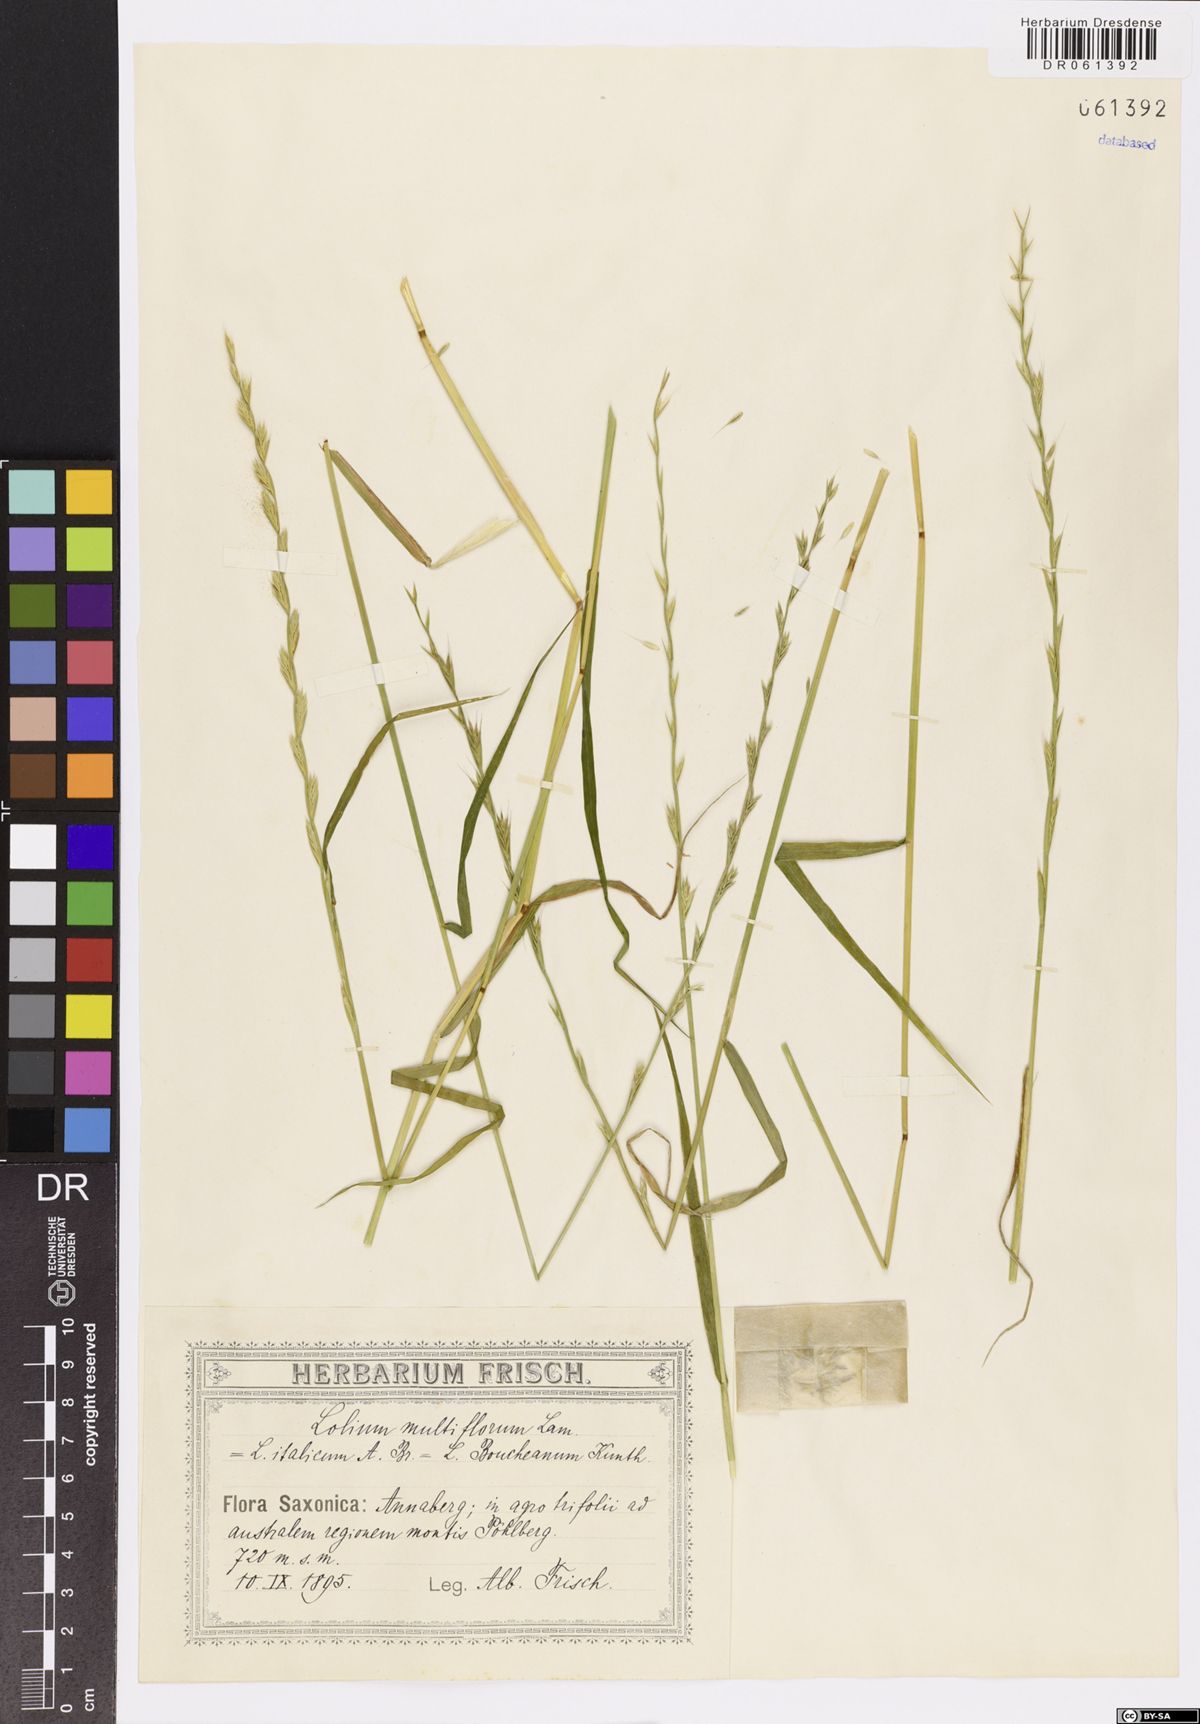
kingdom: Plantae
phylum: Tracheophyta
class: Liliopsida
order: Poales
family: Poaceae
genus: Lolium
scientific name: Lolium multiflorum
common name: Annual ryegrass
